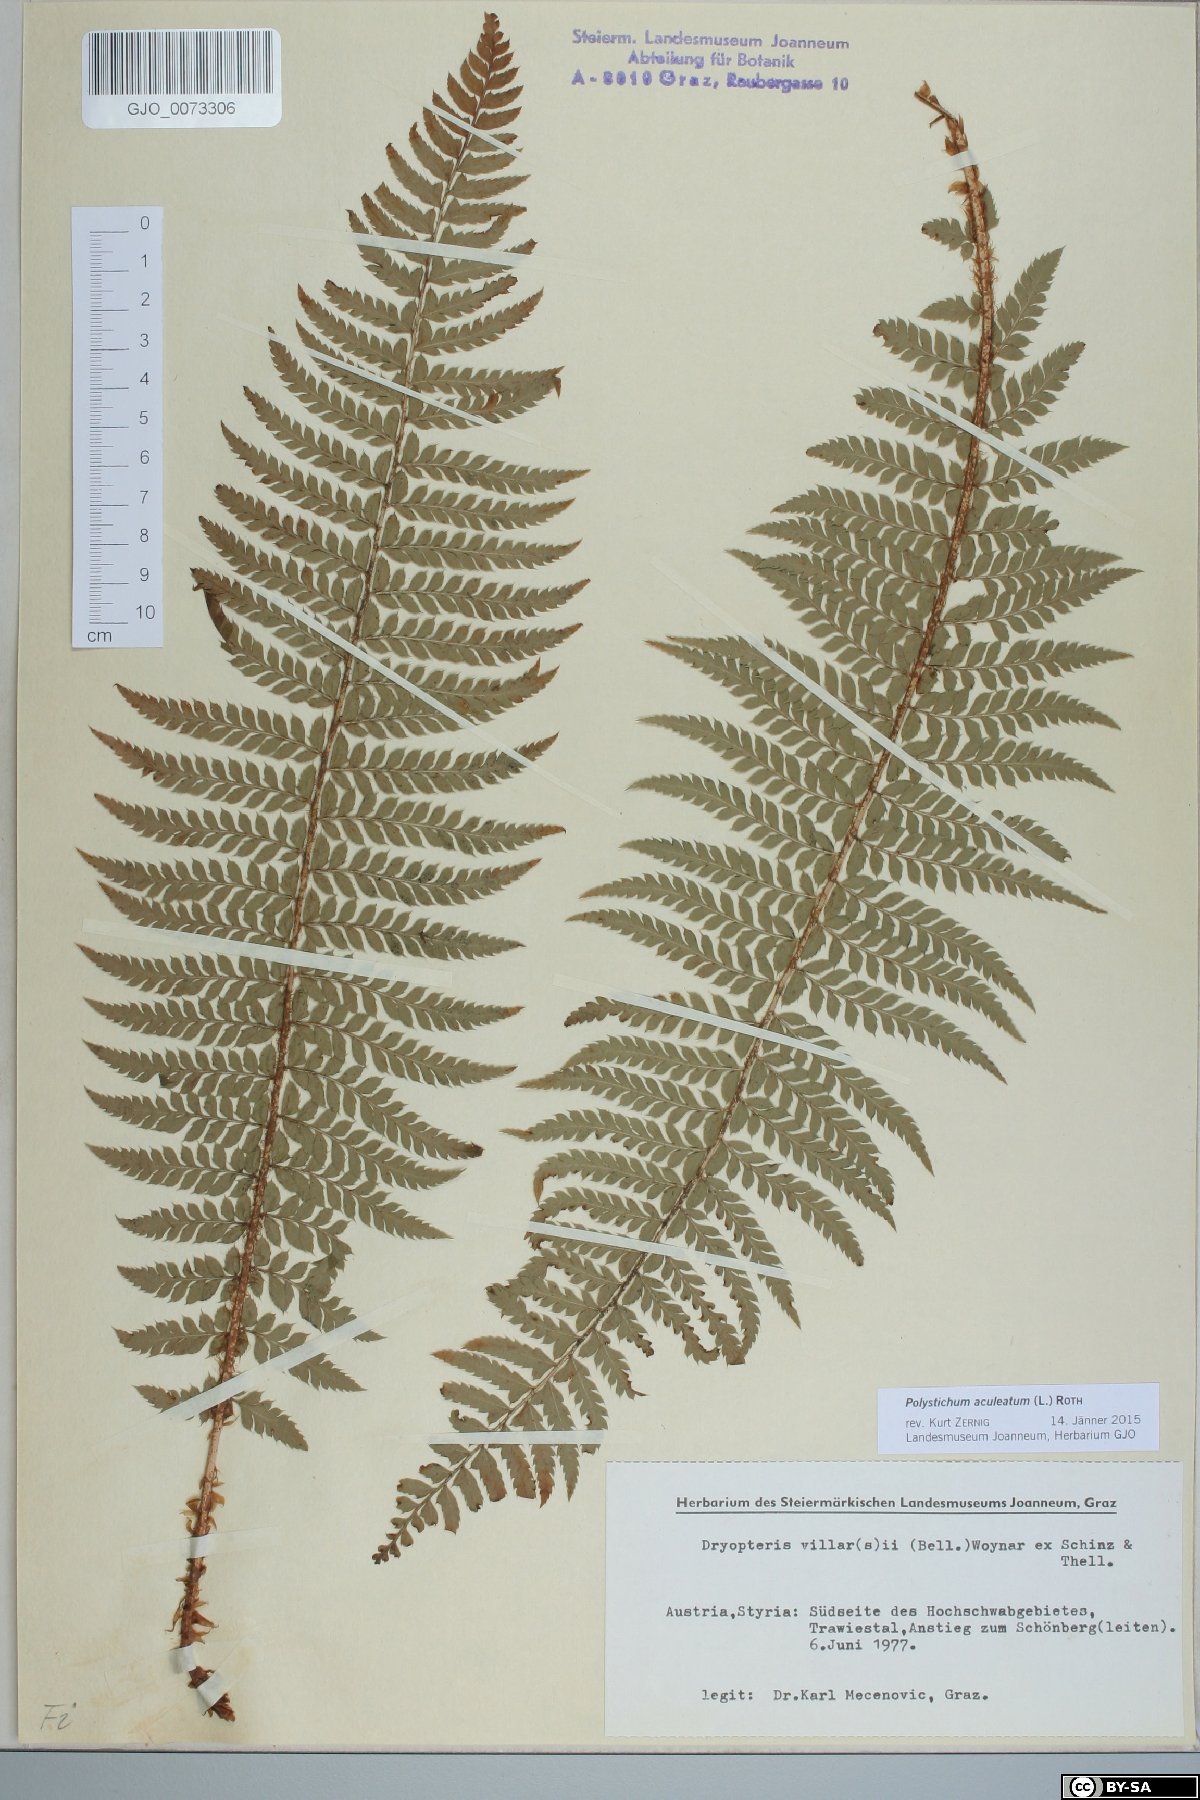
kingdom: Plantae
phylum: Tracheophyta
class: Polypodiopsida
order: Polypodiales
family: Dryopteridaceae
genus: Polystichum
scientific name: Polystichum aculeatum
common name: Hard shield-fern
